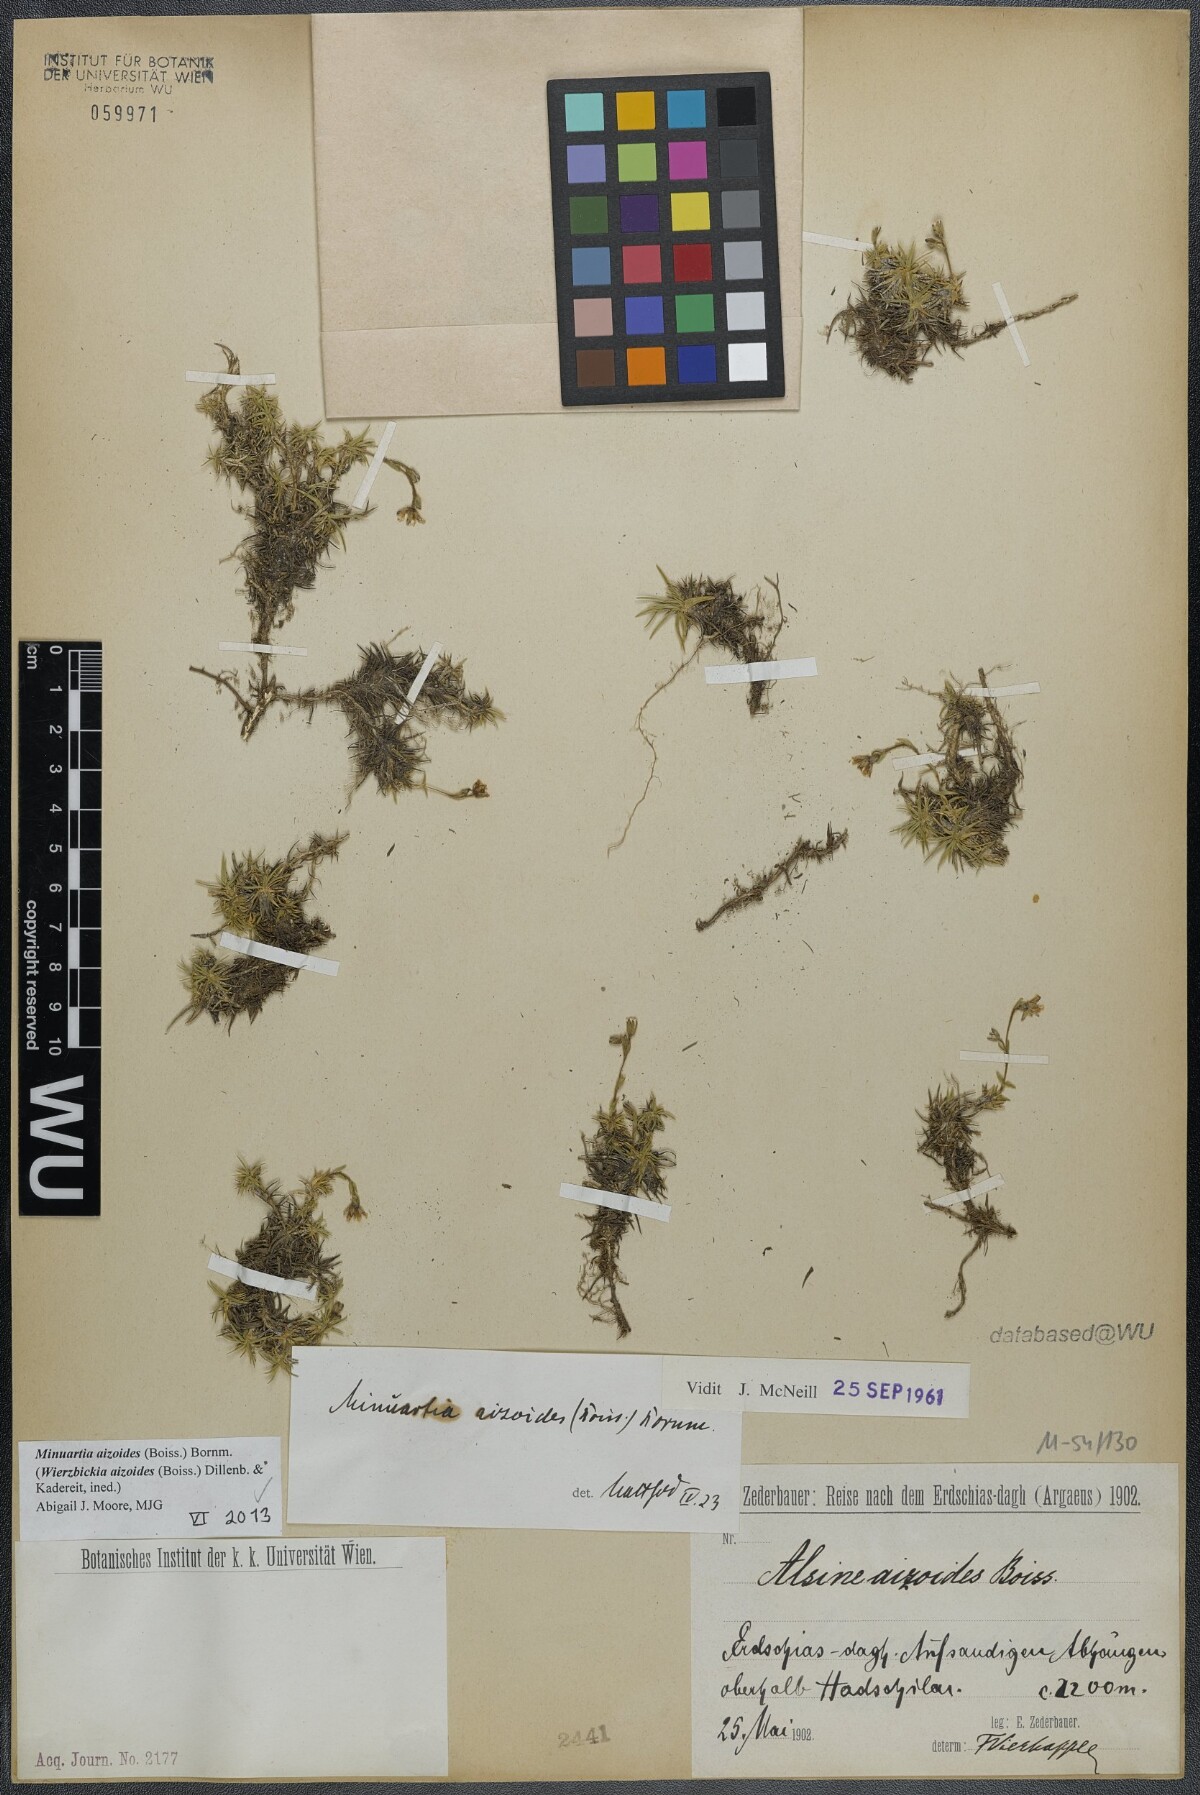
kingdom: Plantae
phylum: Tracheophyta
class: Magnoliopsida
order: Caryophyllales
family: Caryophyllaceae
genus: Pseudocherleria
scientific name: Pseudocherleria aizoides
